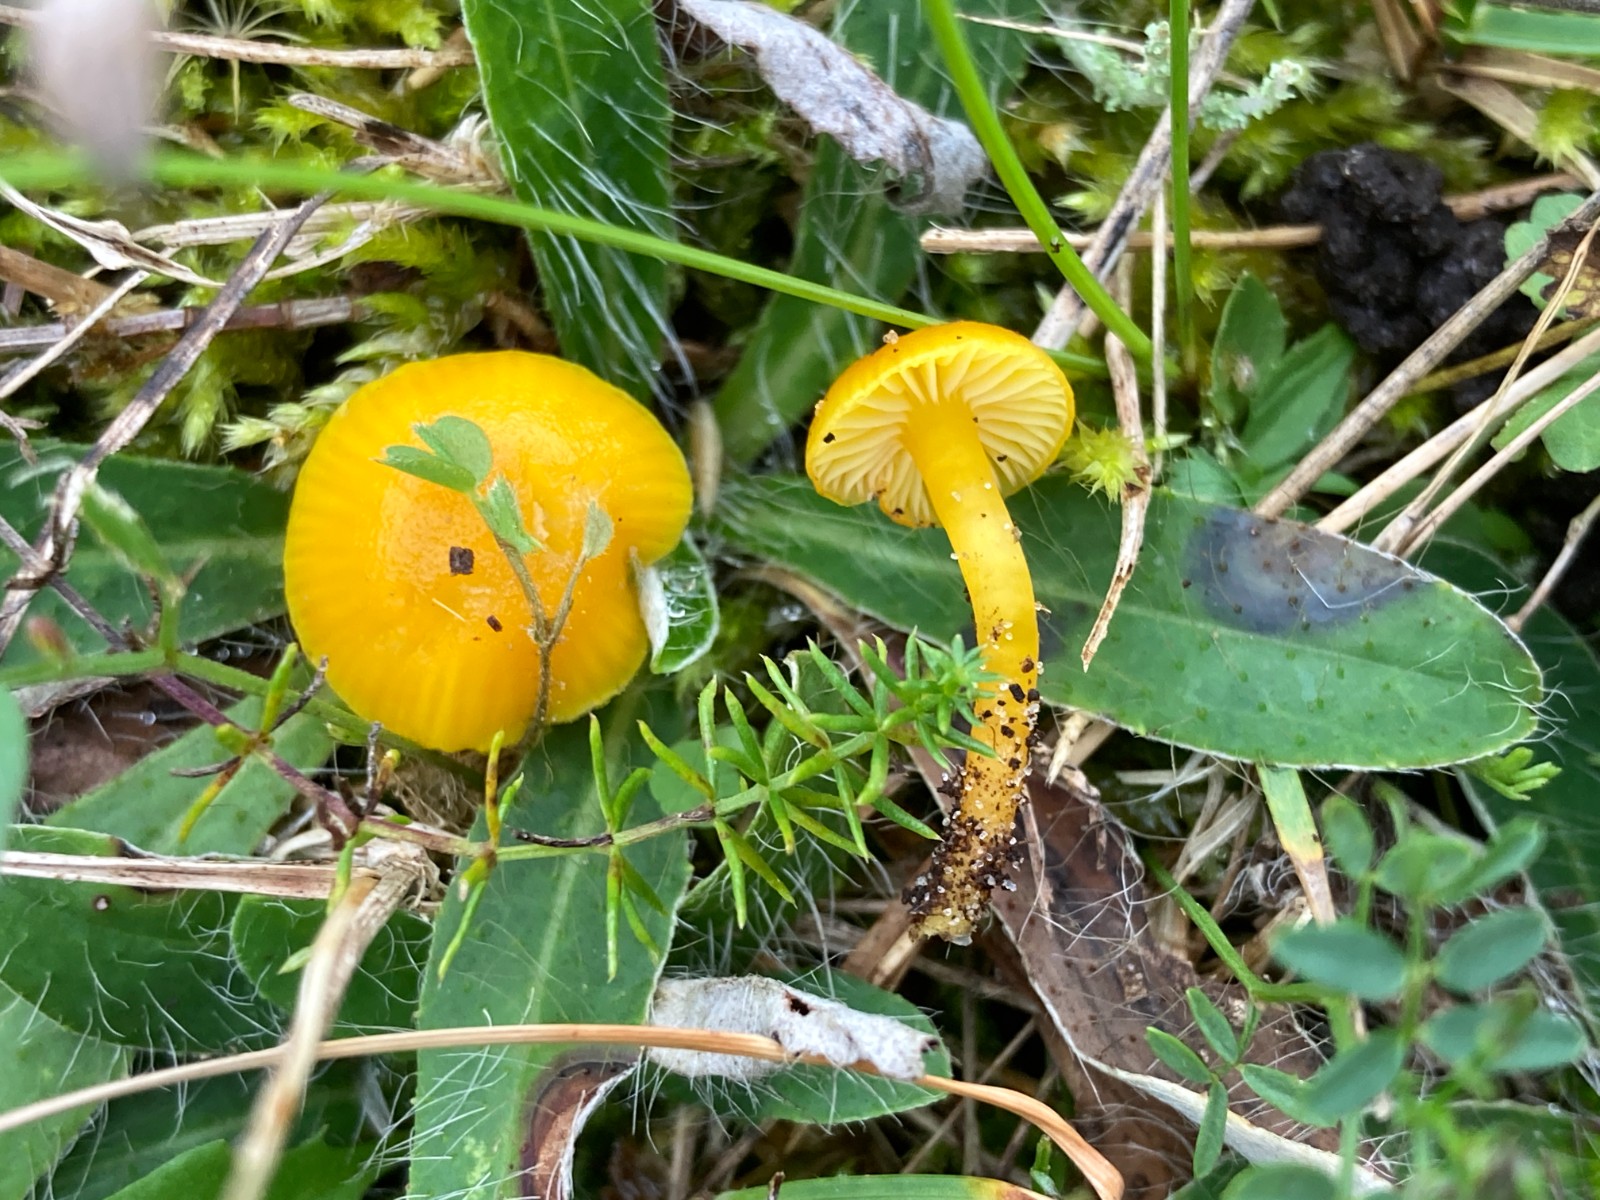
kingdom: Fungi
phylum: Basidiomycota
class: Agaricomycetes
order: Agaricales
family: Hygrophoraceae
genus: Hygrocybe
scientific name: Hygrocybe ceracea
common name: voksgul vokshat
